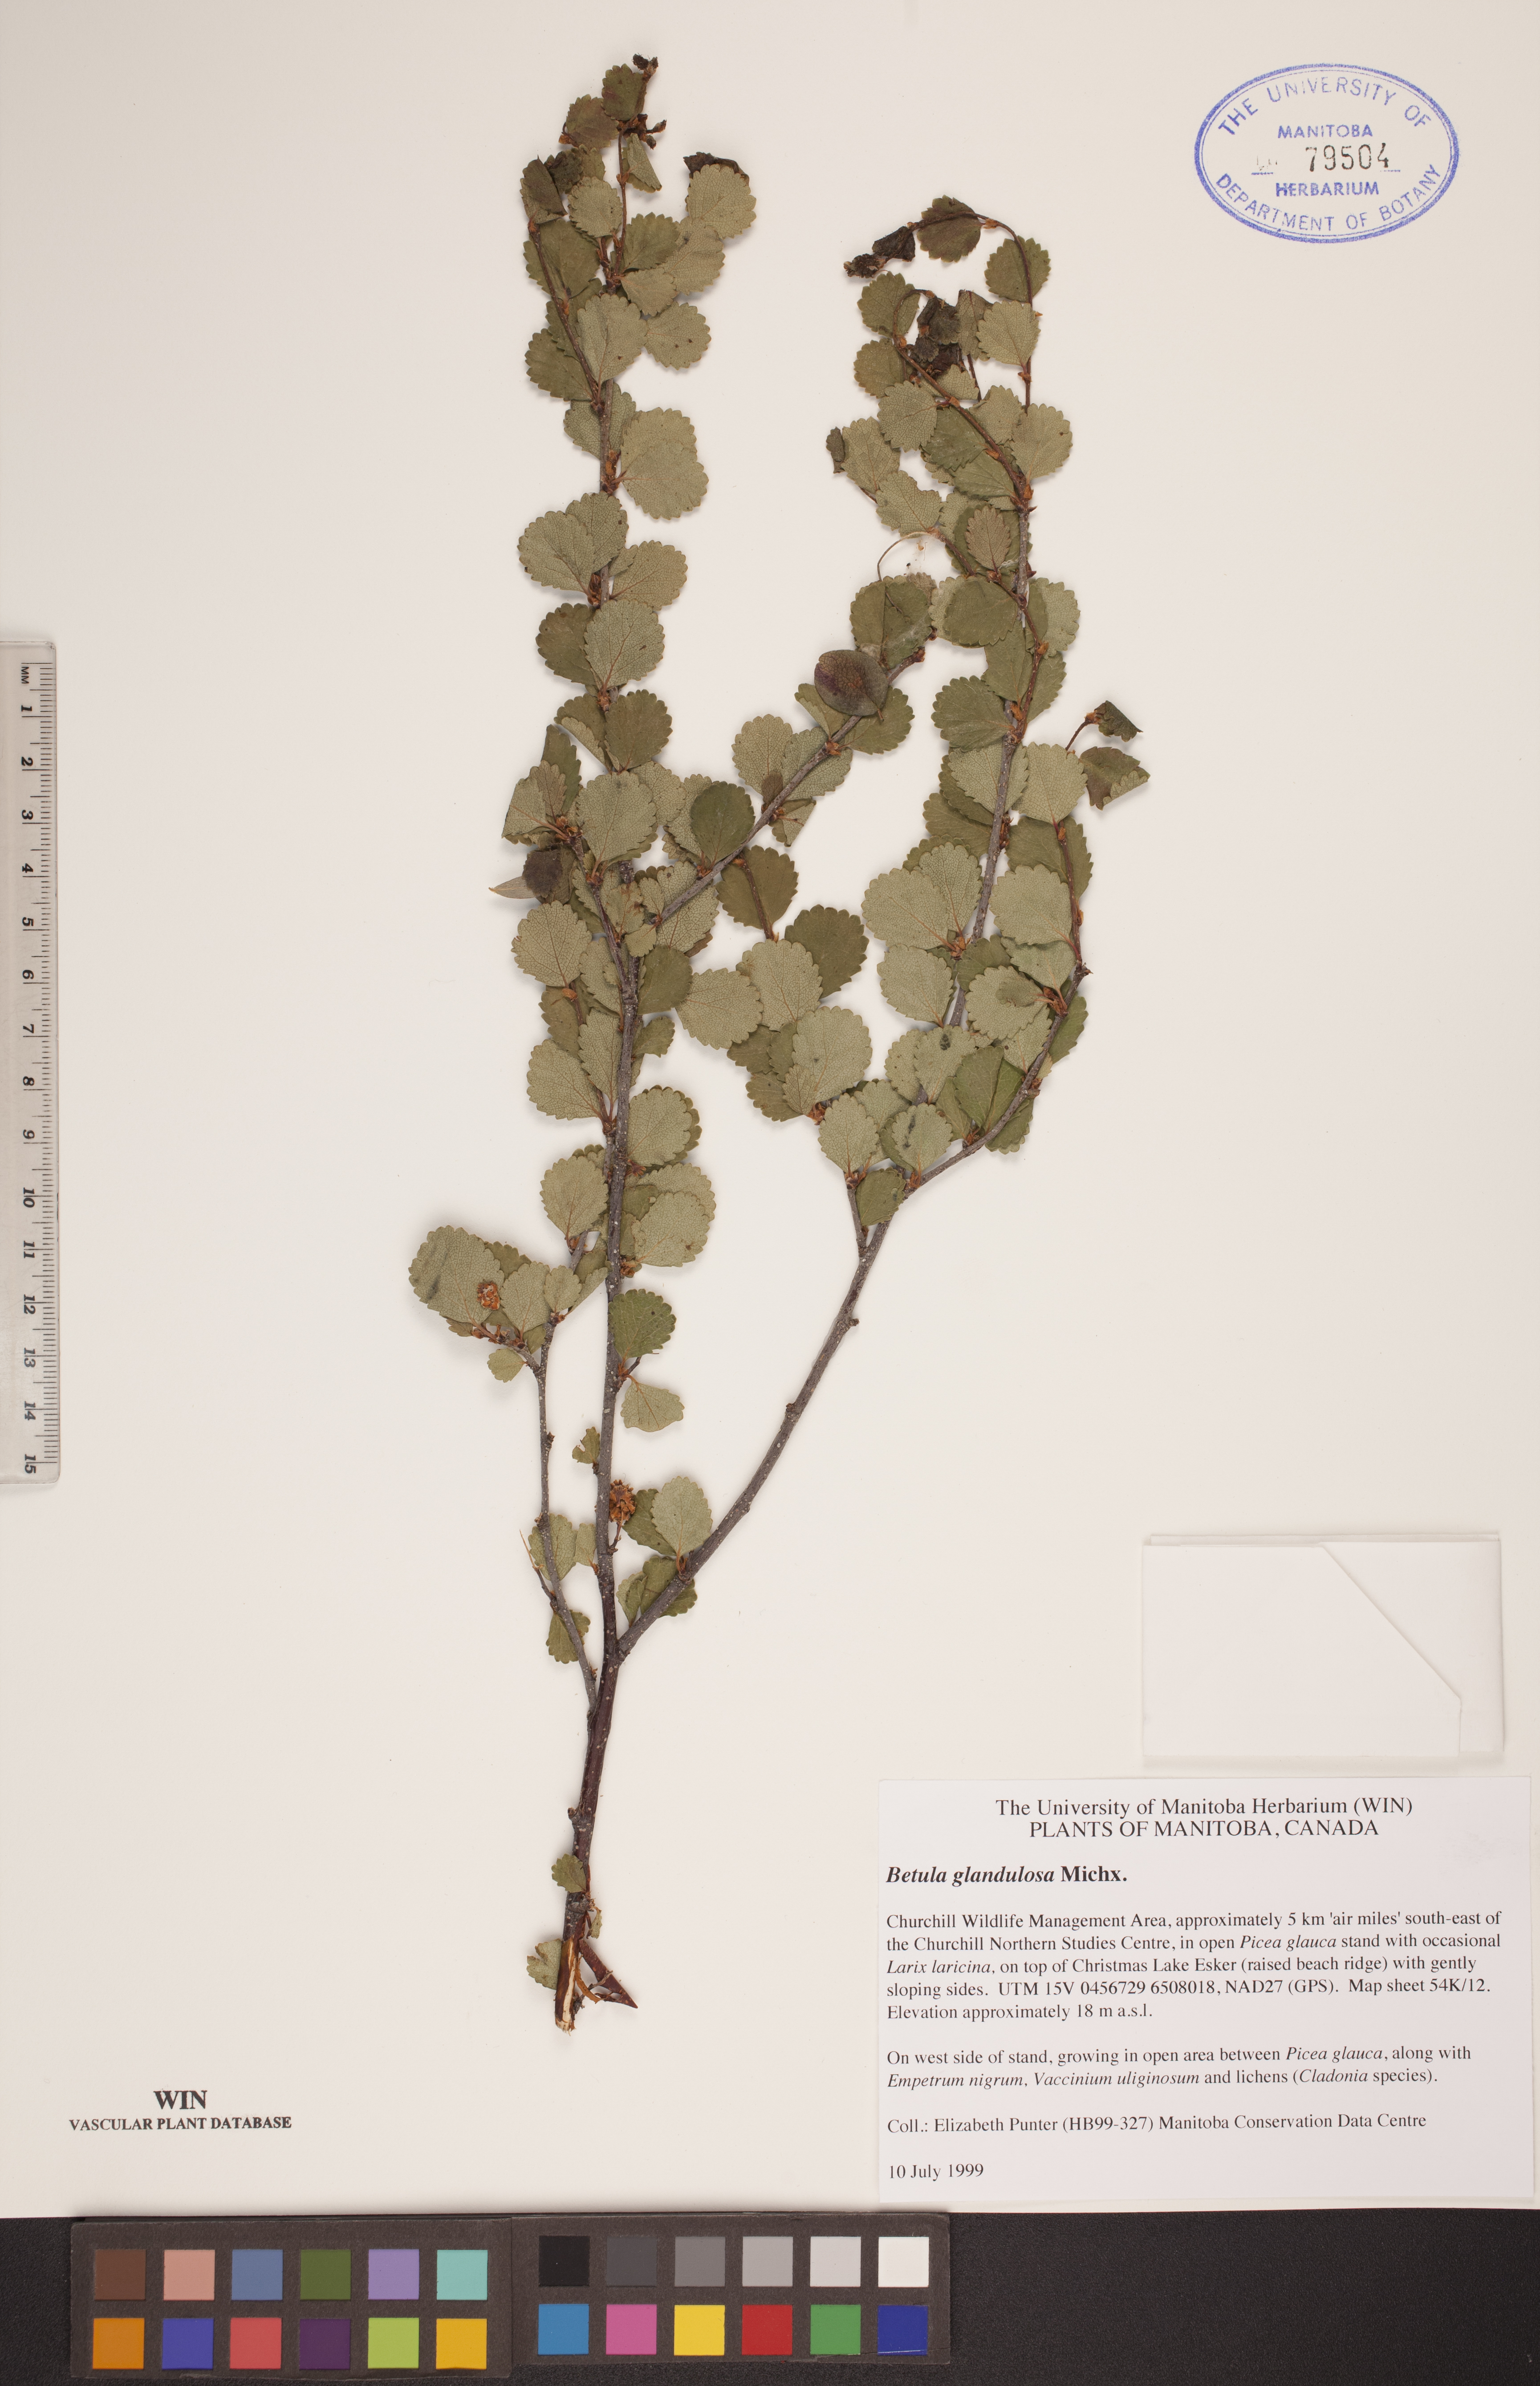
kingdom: Plantae
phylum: Tracheophyta
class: Magnoliopsida
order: Fagales
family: Betulaceae
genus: Betula
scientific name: Betula glandulosa
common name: Dwarf birch
